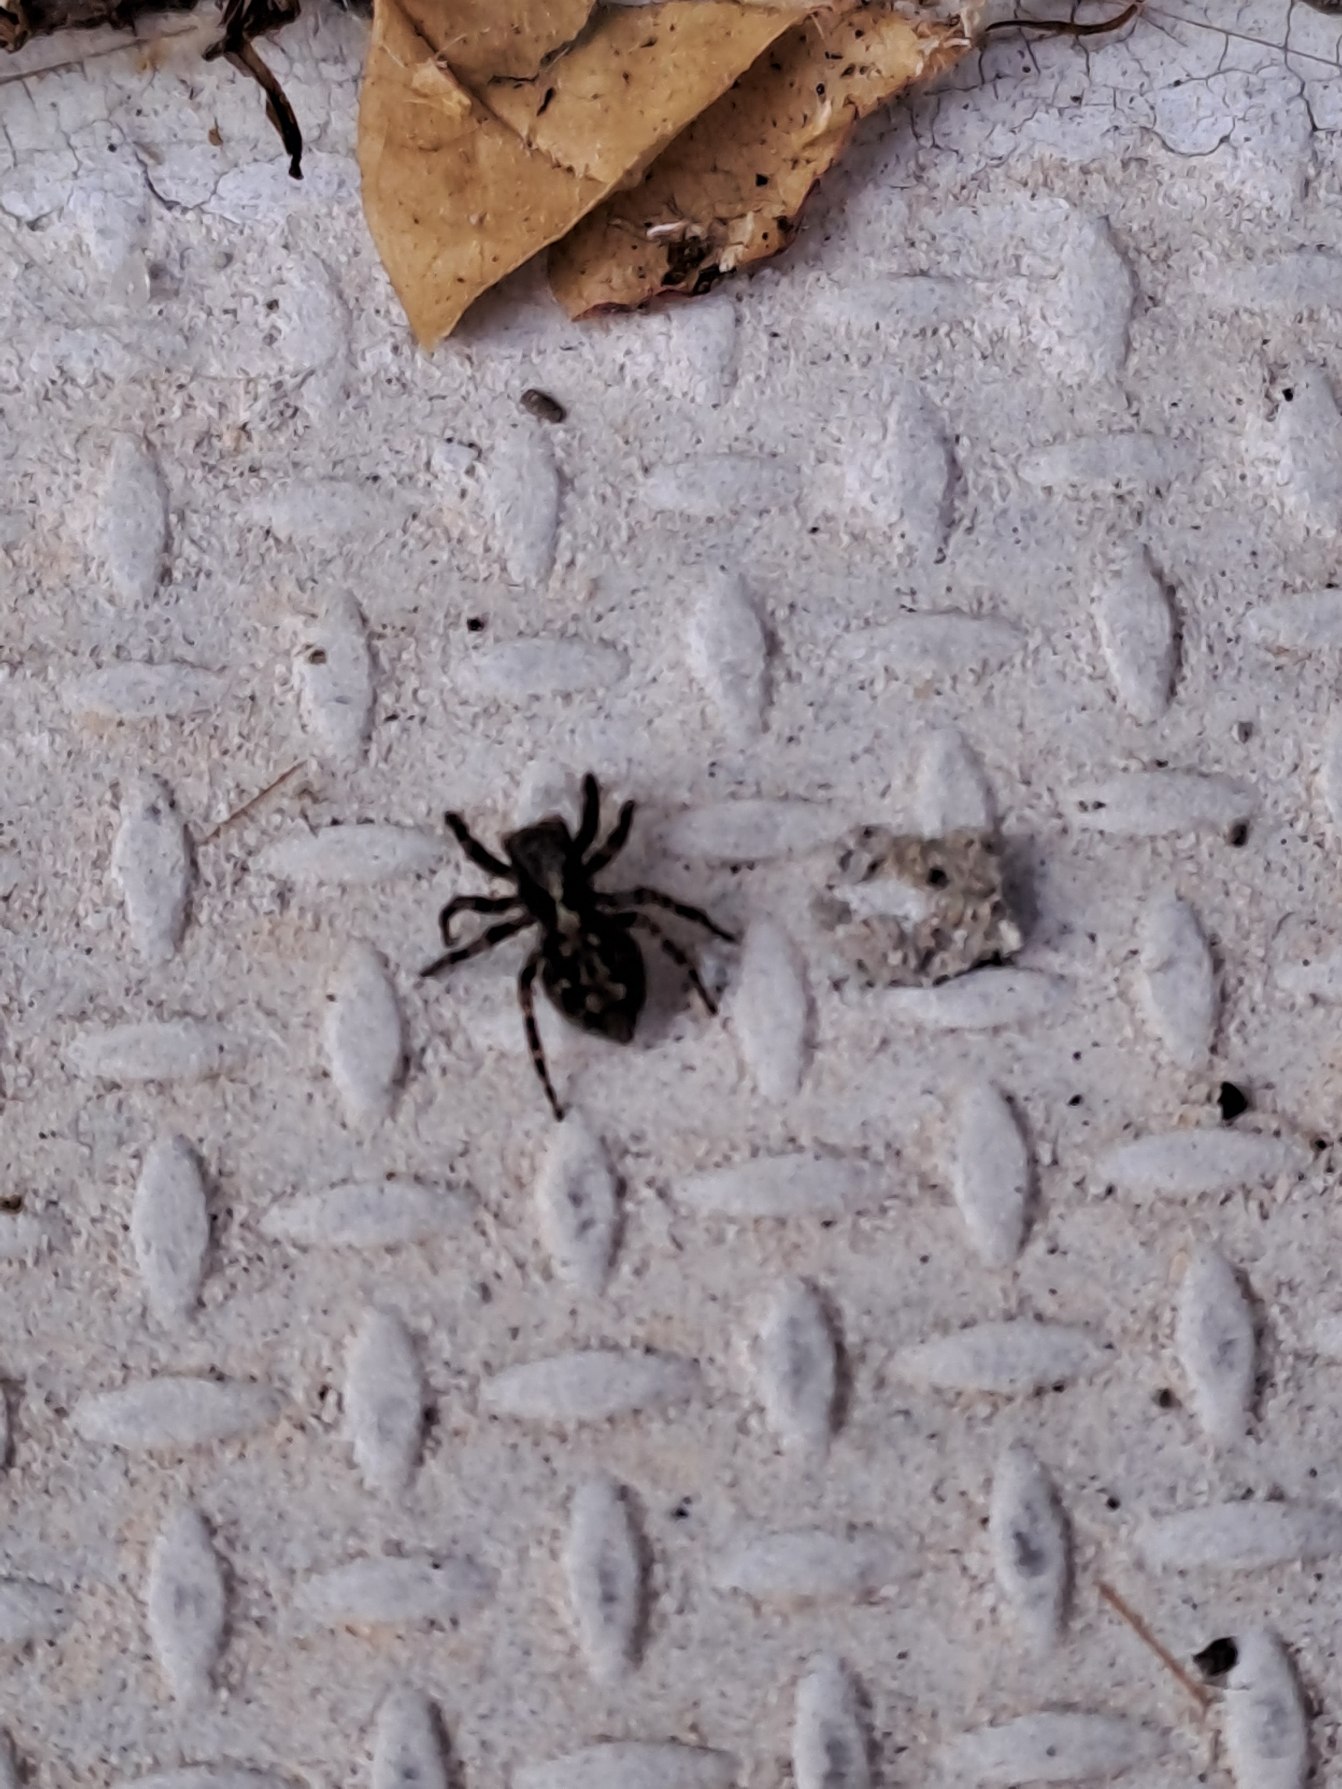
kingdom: Animalia
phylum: Arthropoda
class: Arachnida
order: Araneae
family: Salticidae
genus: Pseudeuophrys
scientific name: Pseudeuophrys lanigera
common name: Vinduesspringer
